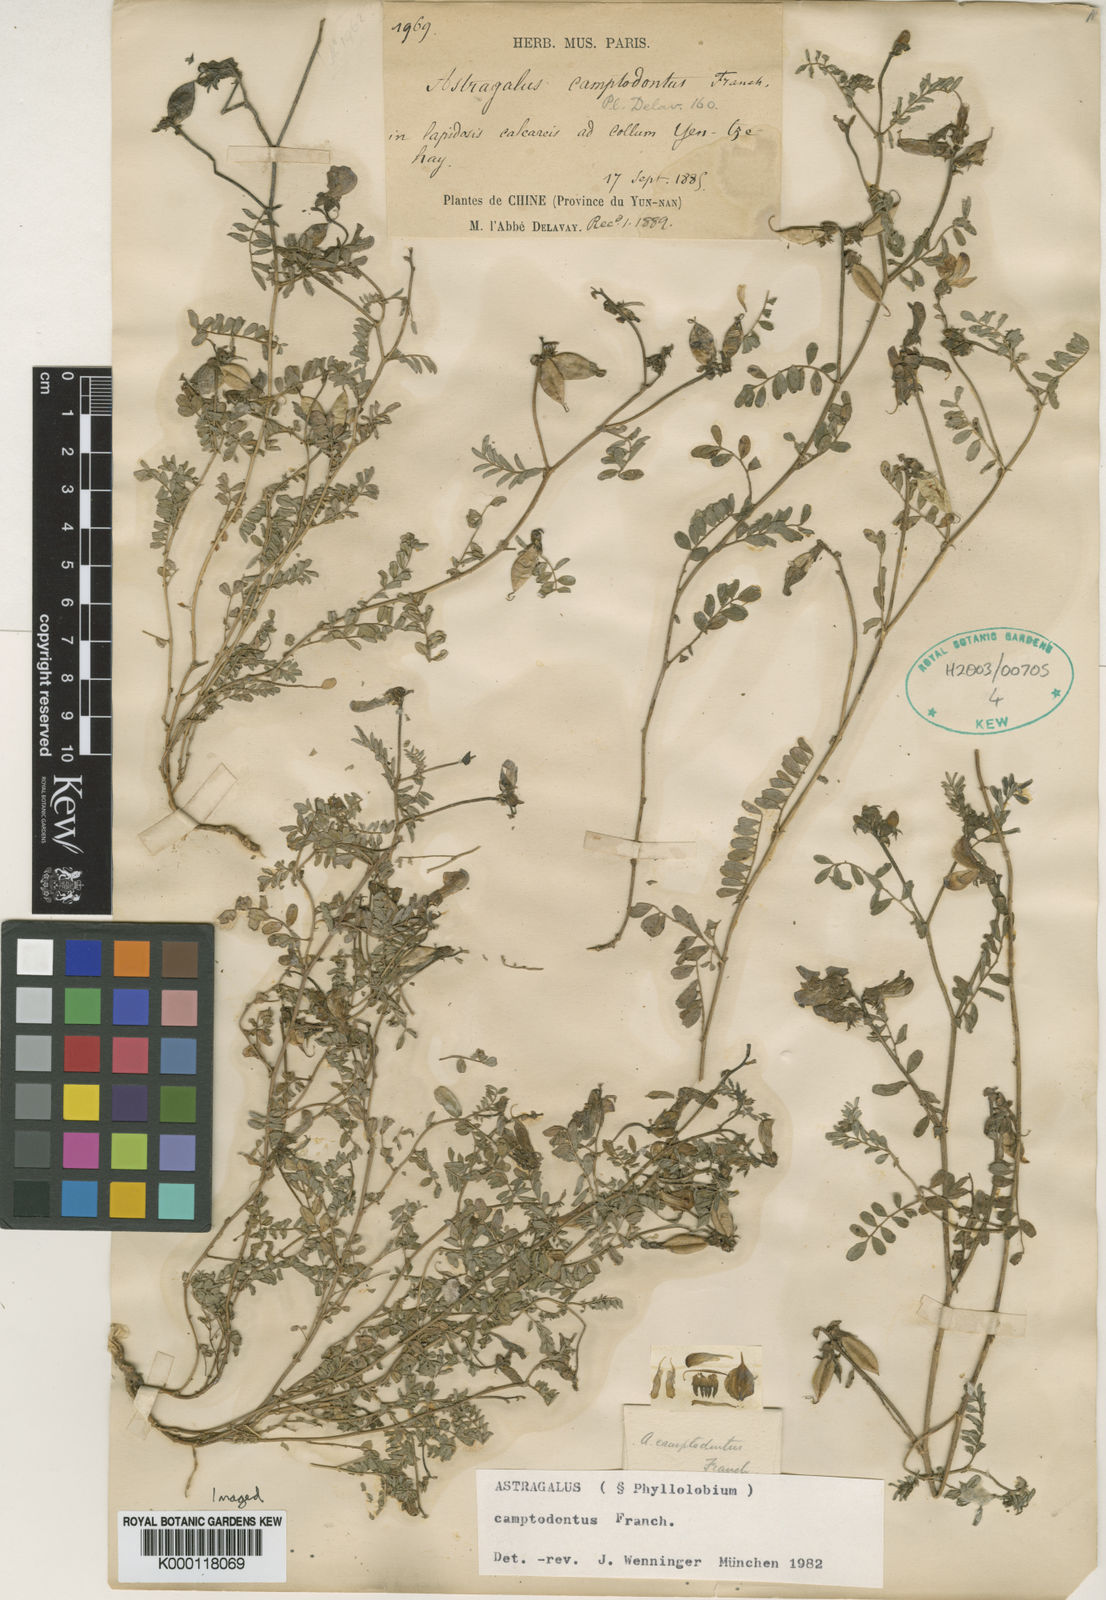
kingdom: Plantae
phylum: Tracheophyta
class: Magnoliopsida
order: Fabales
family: Fabaceae
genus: Astragalus
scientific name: Astragalus
